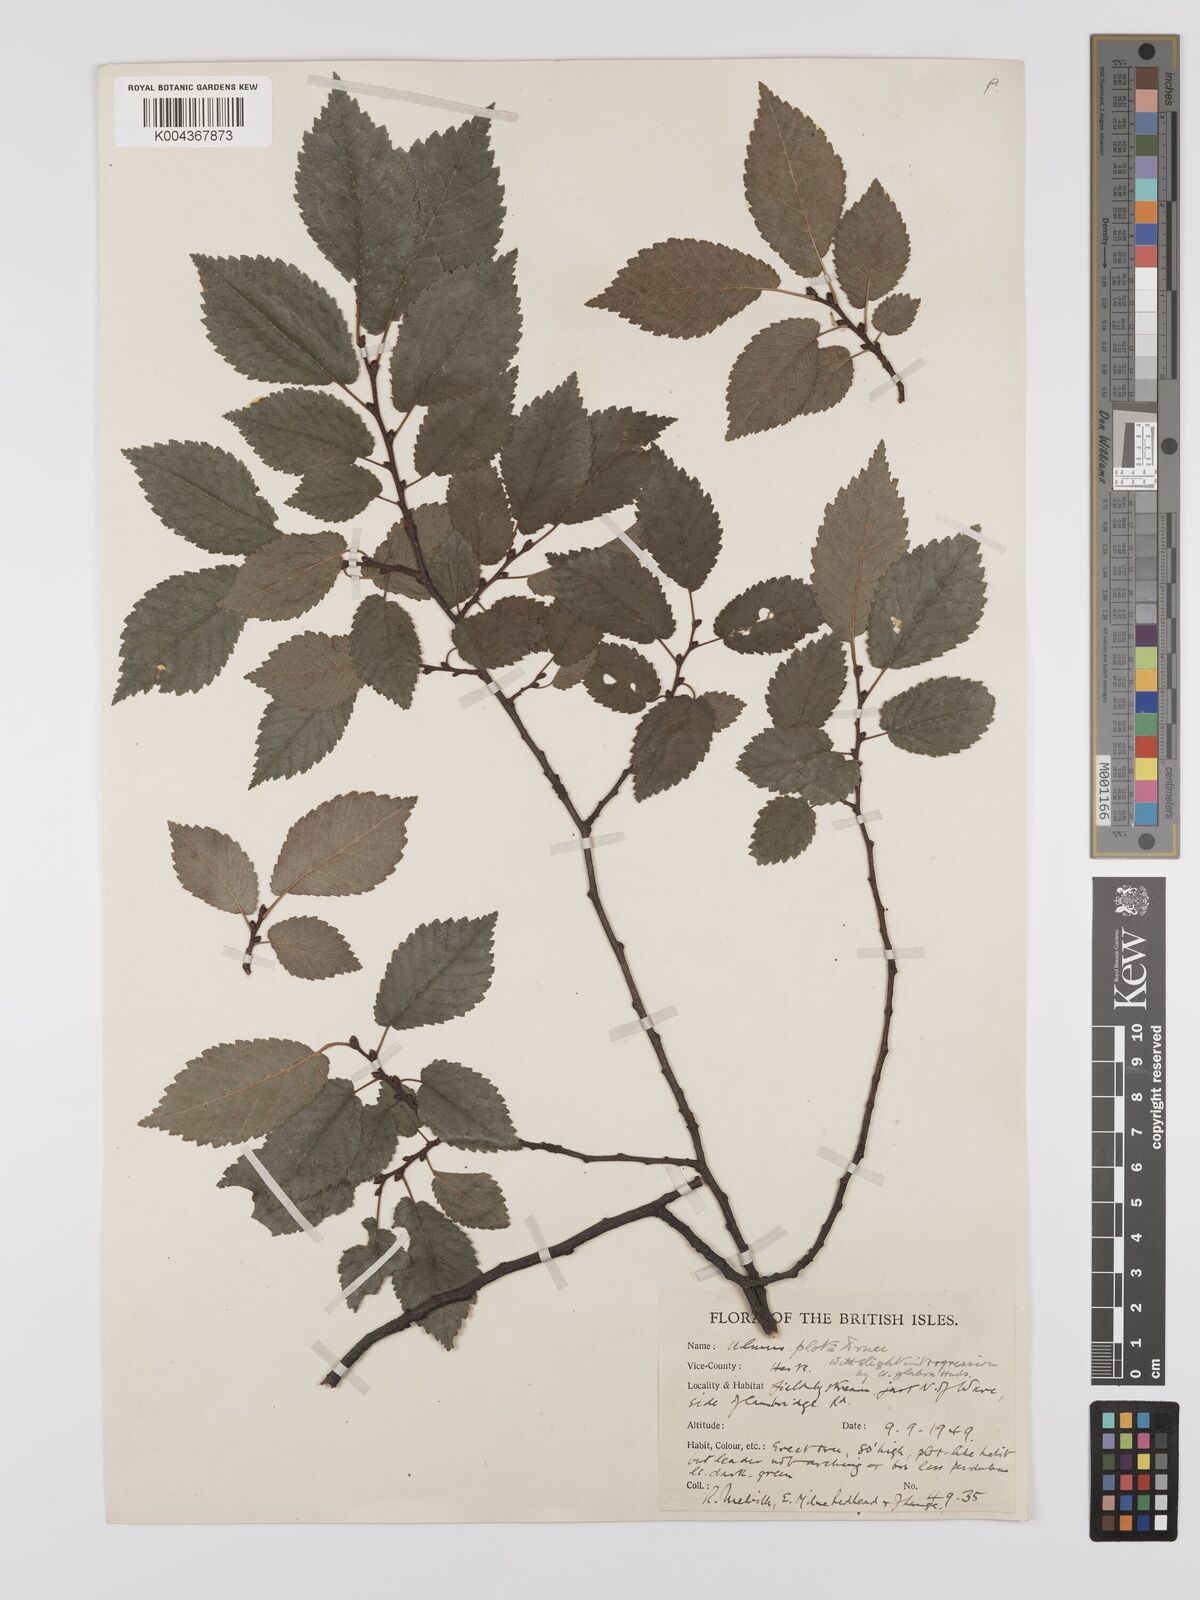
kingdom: Plantae
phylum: Tracheophyta
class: Magnoliopsida
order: Rosales
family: Ulmaceae
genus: Ulmus
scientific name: Ulmus
